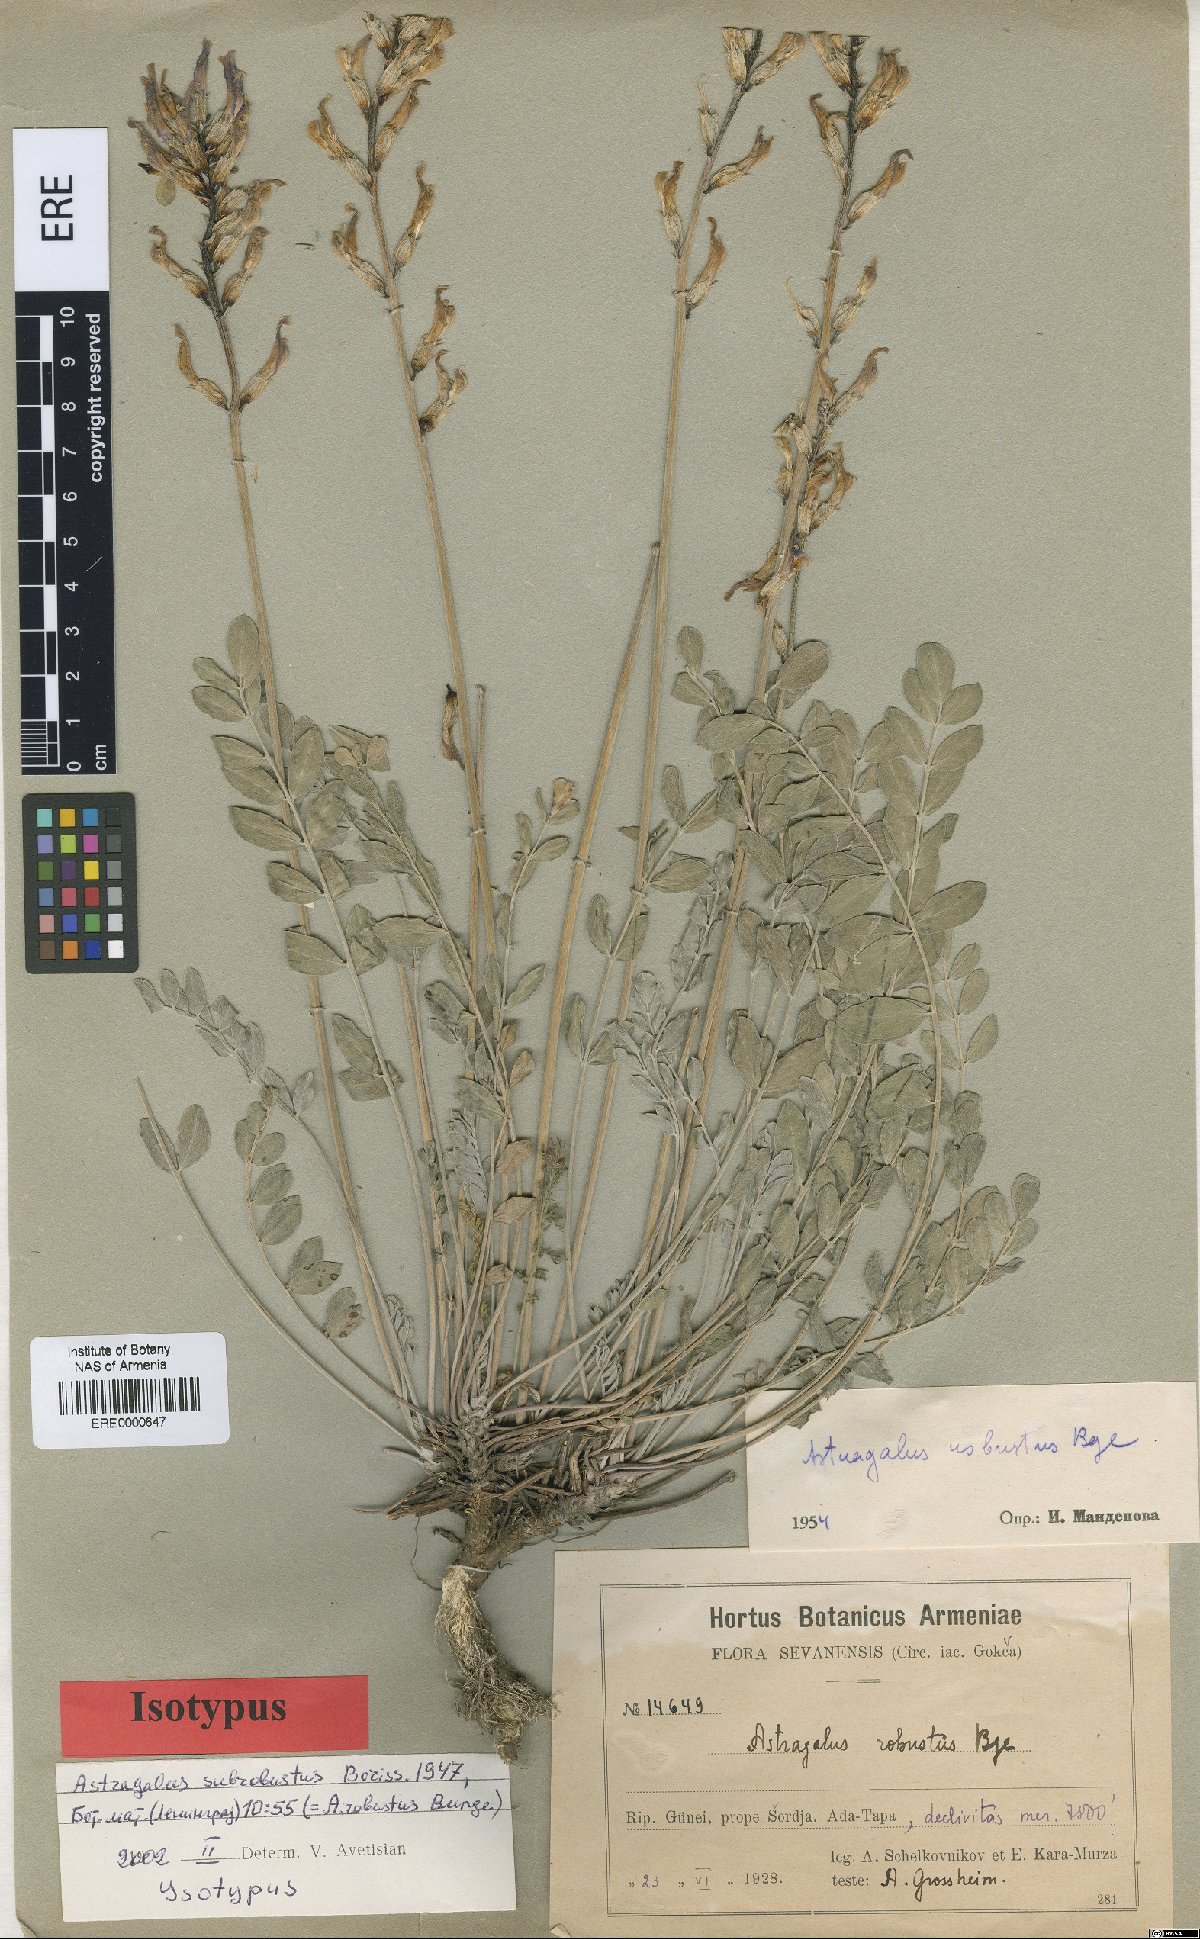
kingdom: Plantae
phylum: Tracheophyta
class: Magnoliopsida
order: Fabales
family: Fabaceae
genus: Astragalus
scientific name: Astragalus robustus
